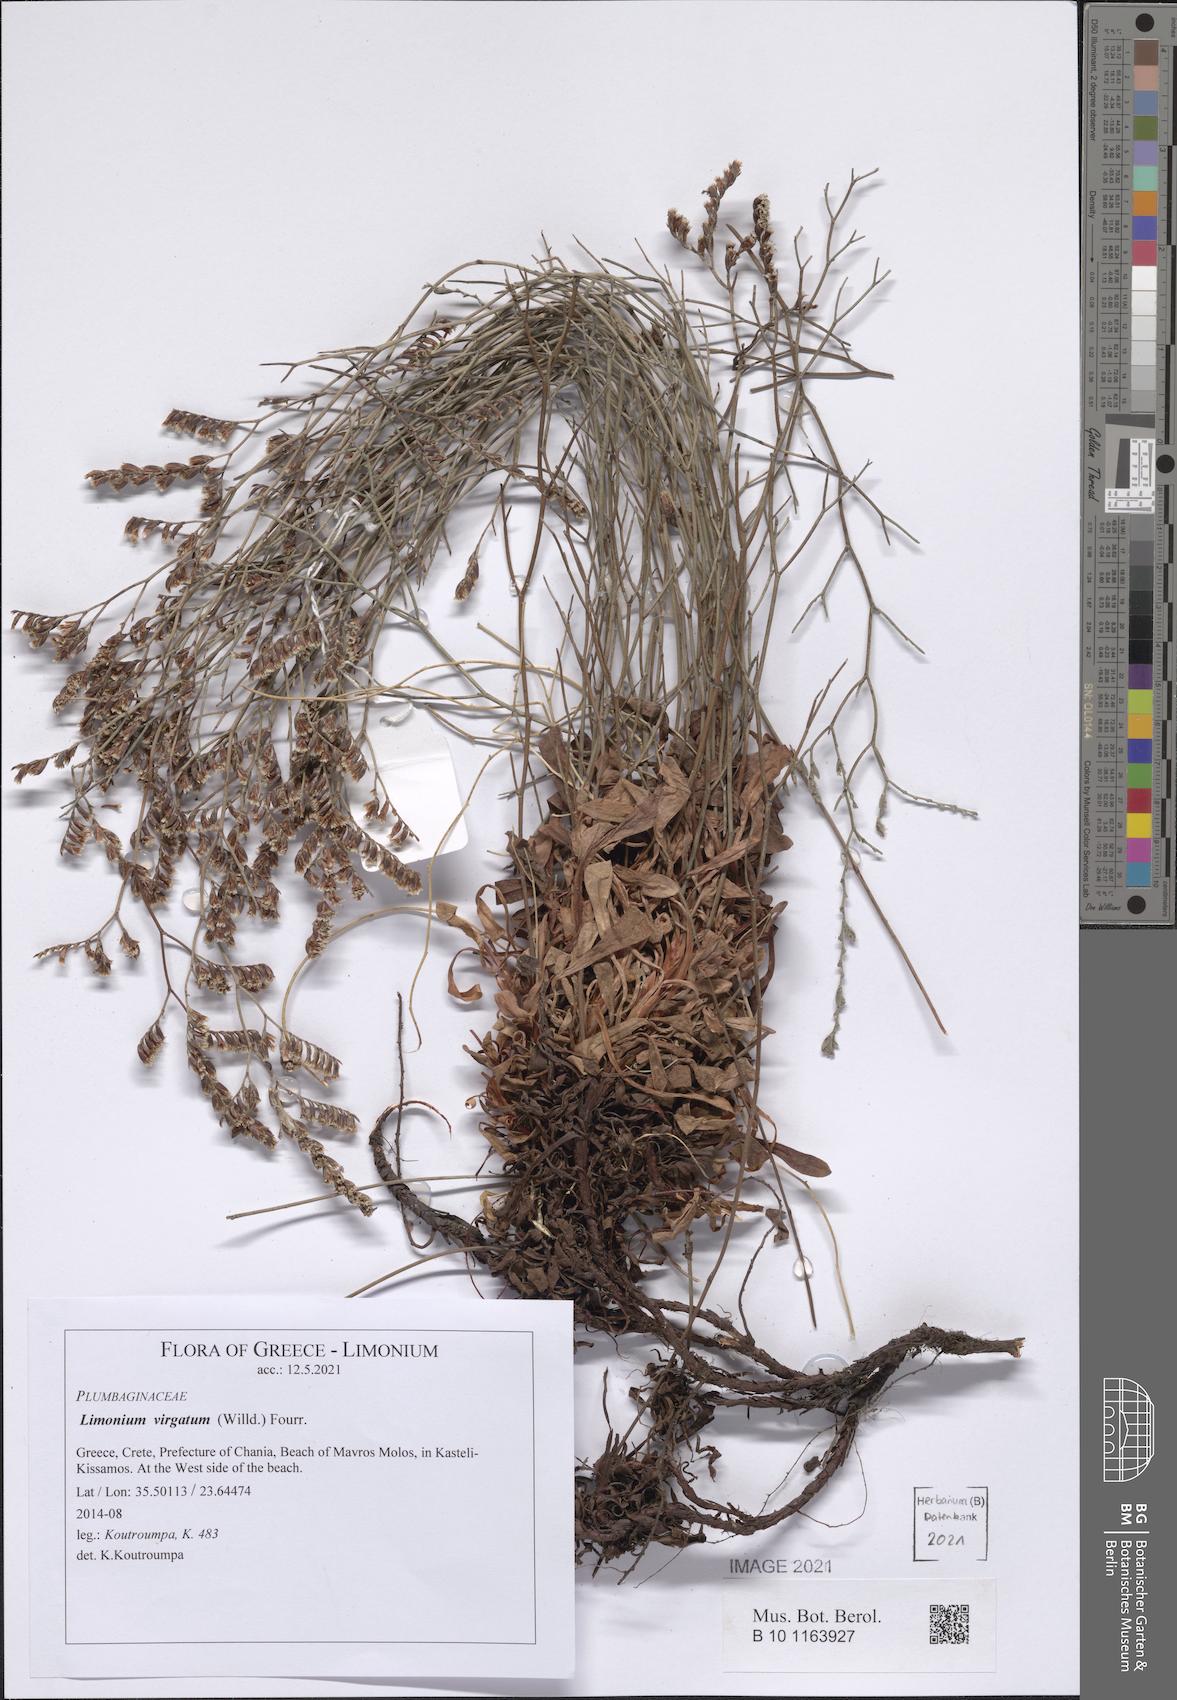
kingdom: Plantae
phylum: Tracheophyta
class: Magnoliopsida
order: Caryophyllales
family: Plumbaginaceae
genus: Limonium
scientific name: Limonium virgatum
